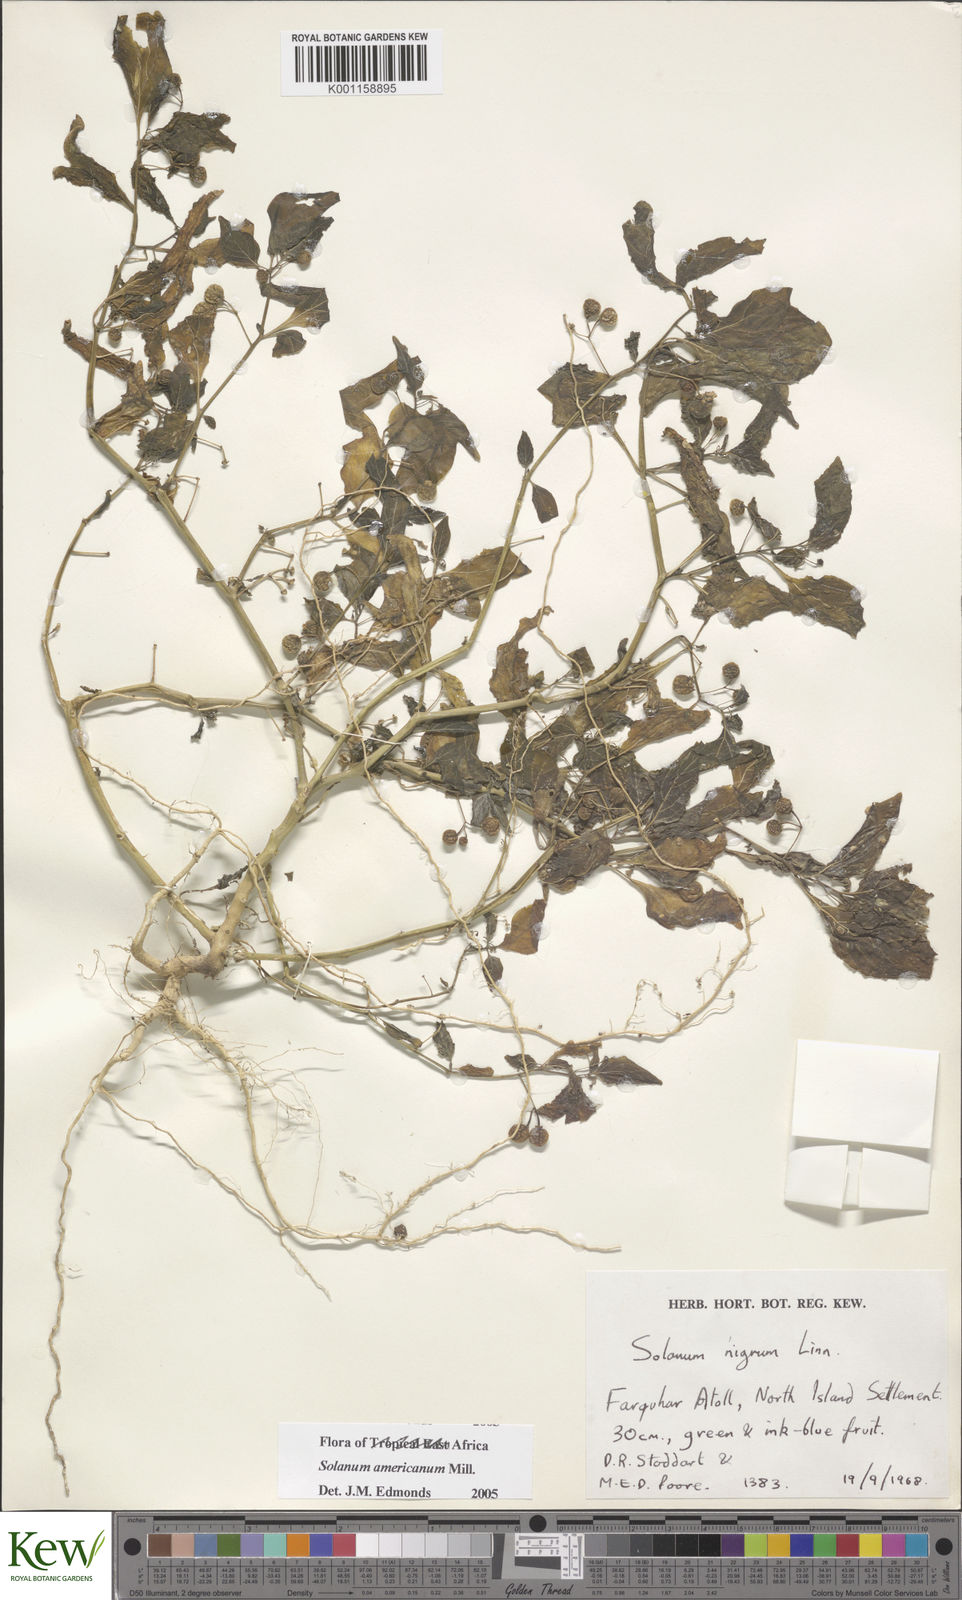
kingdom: Plantae
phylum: Tracheophyta
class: Magnoliopsida
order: Solanales
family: Solanaceae
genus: Solanum
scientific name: Solanum americanum
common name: American black nightshade
